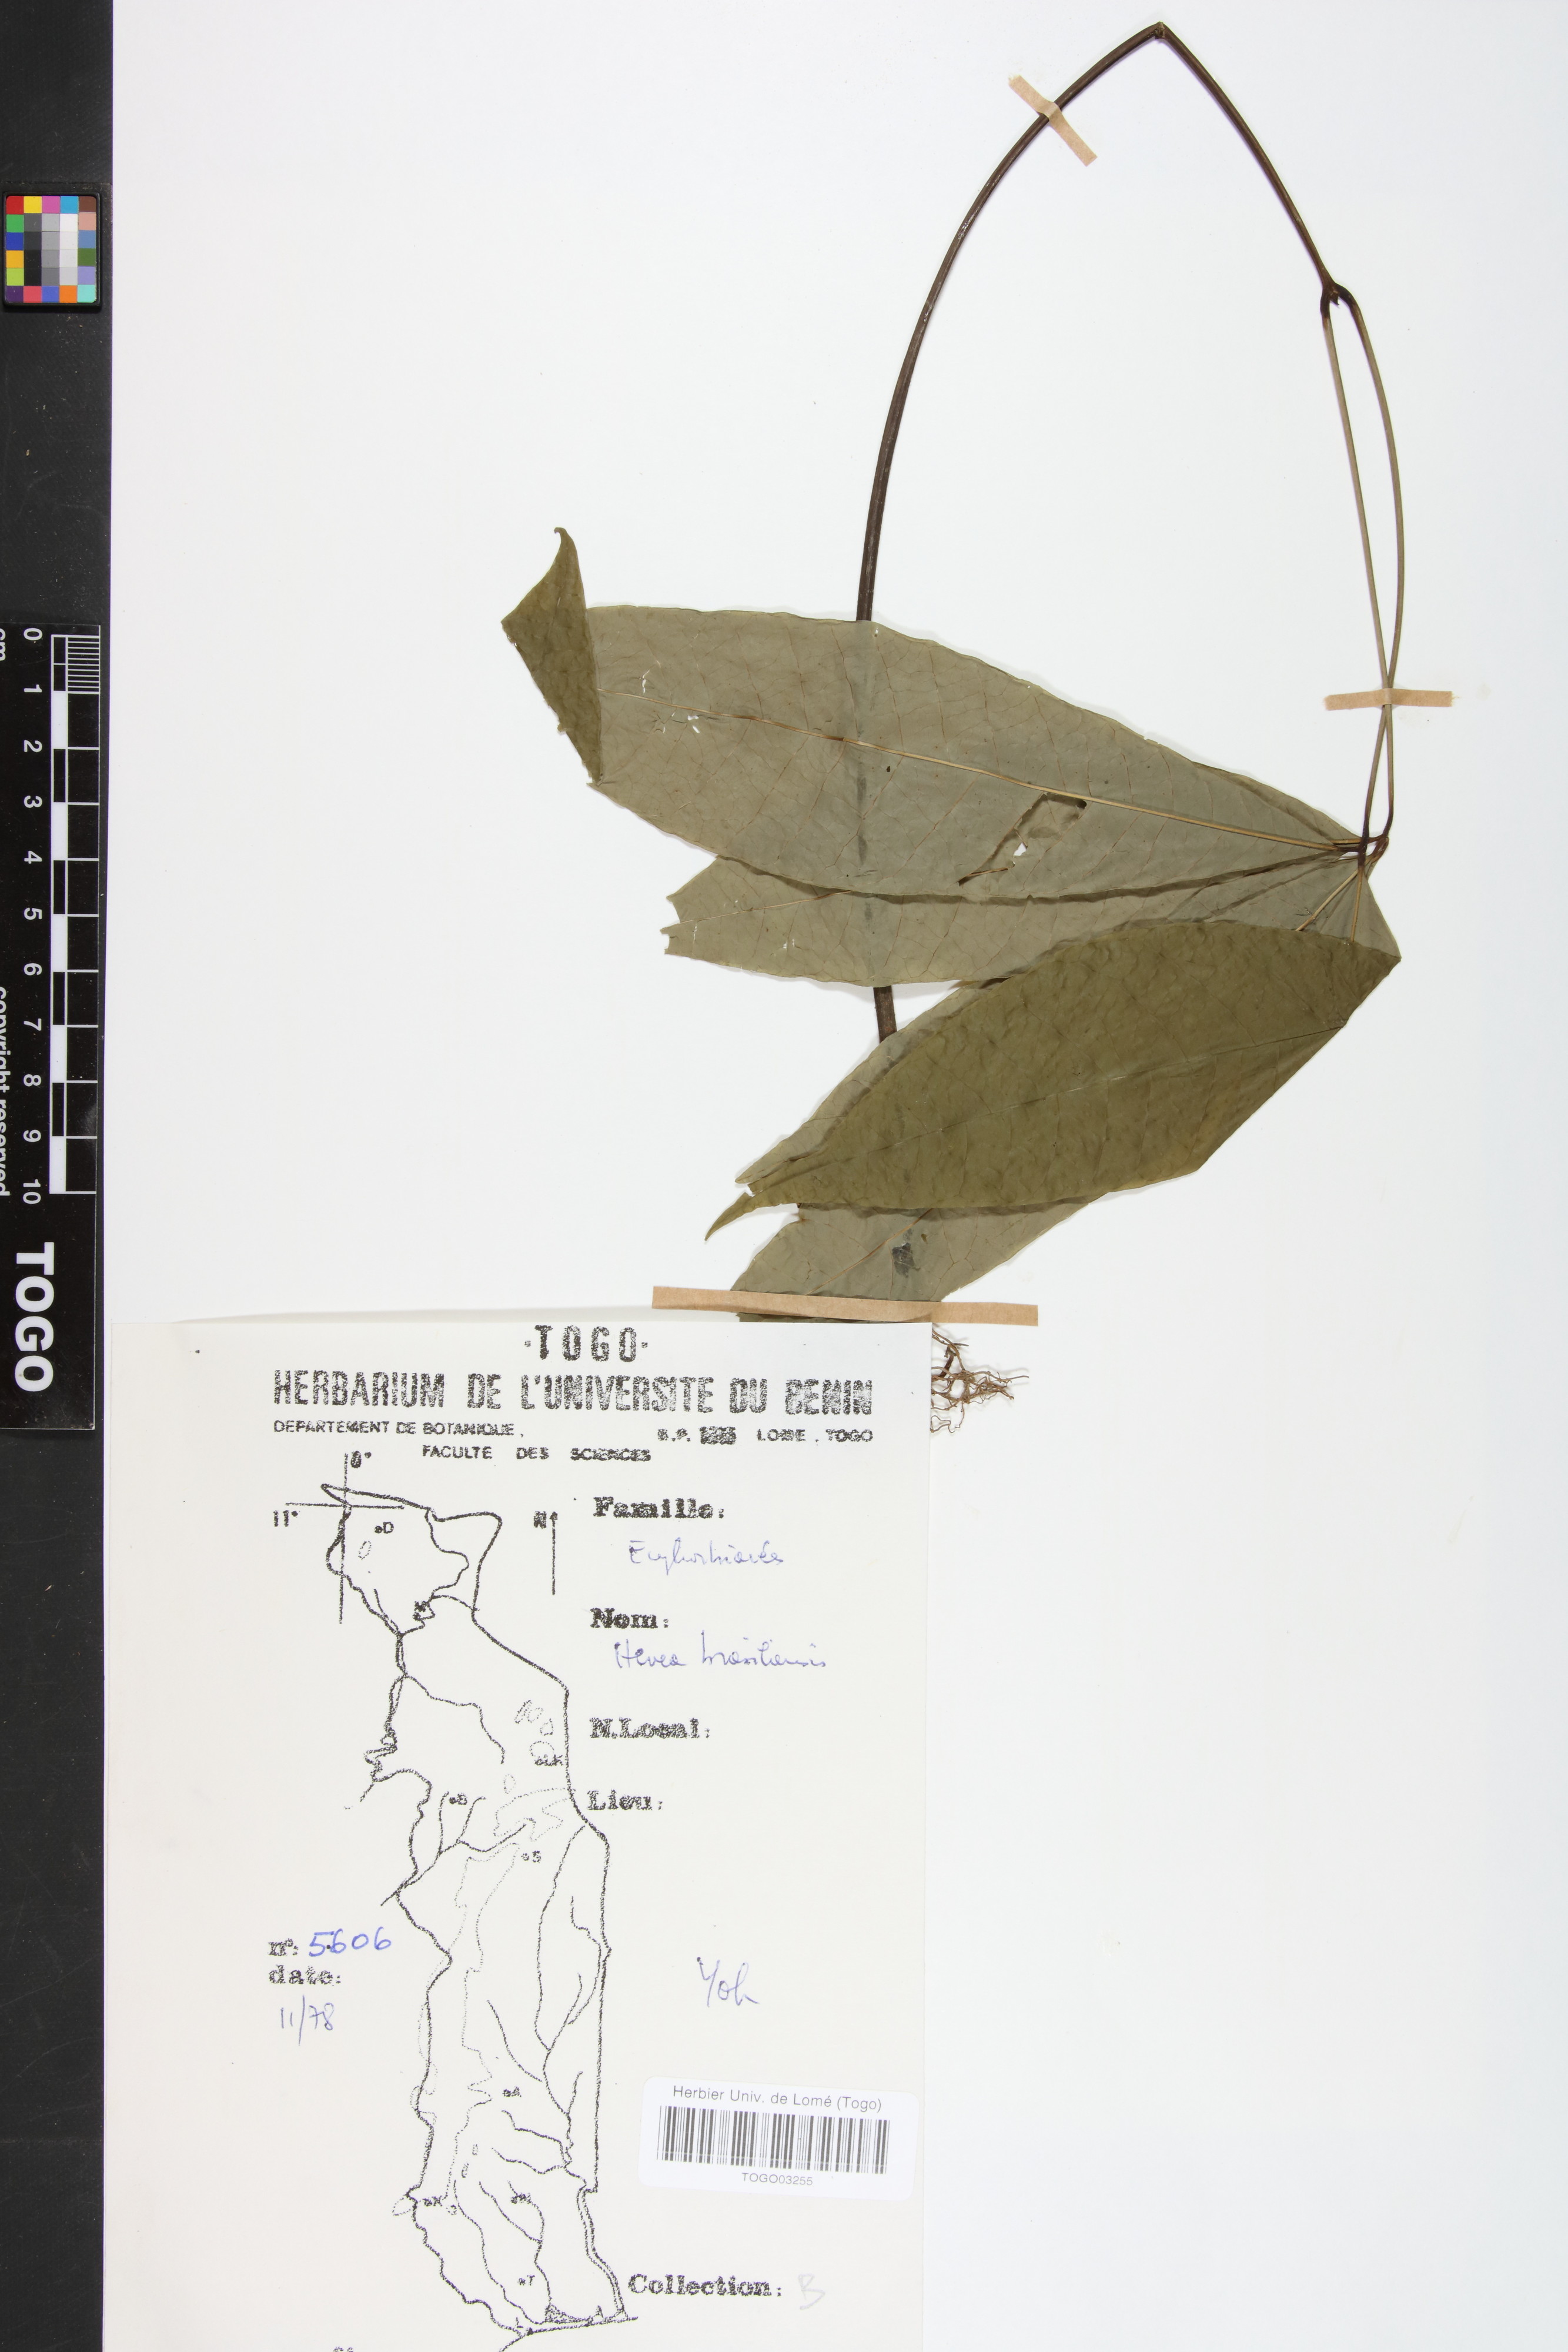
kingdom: Plantae
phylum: Tracheophyta
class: Magnoliopsida
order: Malpighiales
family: Euphorbiaceae
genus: Hevea
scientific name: Hevea brasiliensis
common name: Natural rubber
